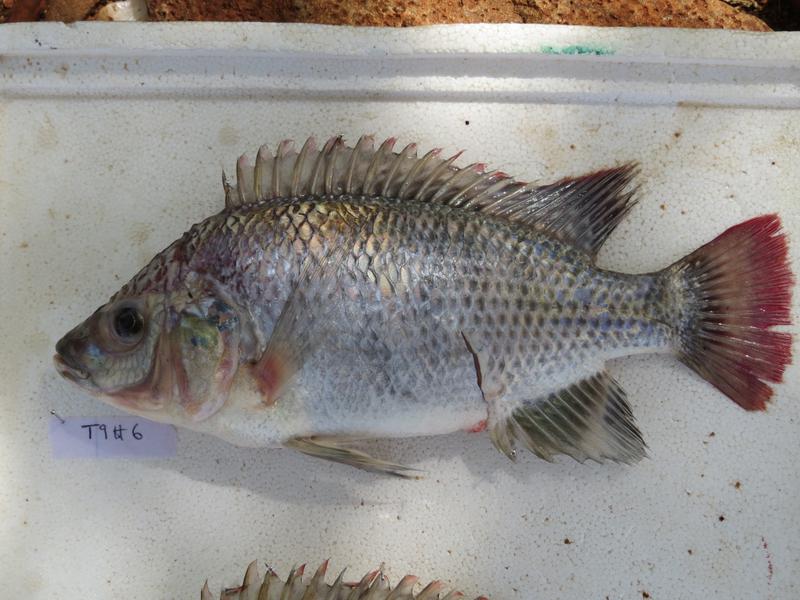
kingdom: Animalia
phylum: Chordata
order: Perciformes
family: Cichlidae
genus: Oreochromis
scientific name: Oreochromis rukwaensis
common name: Lake rukwa tilapia
